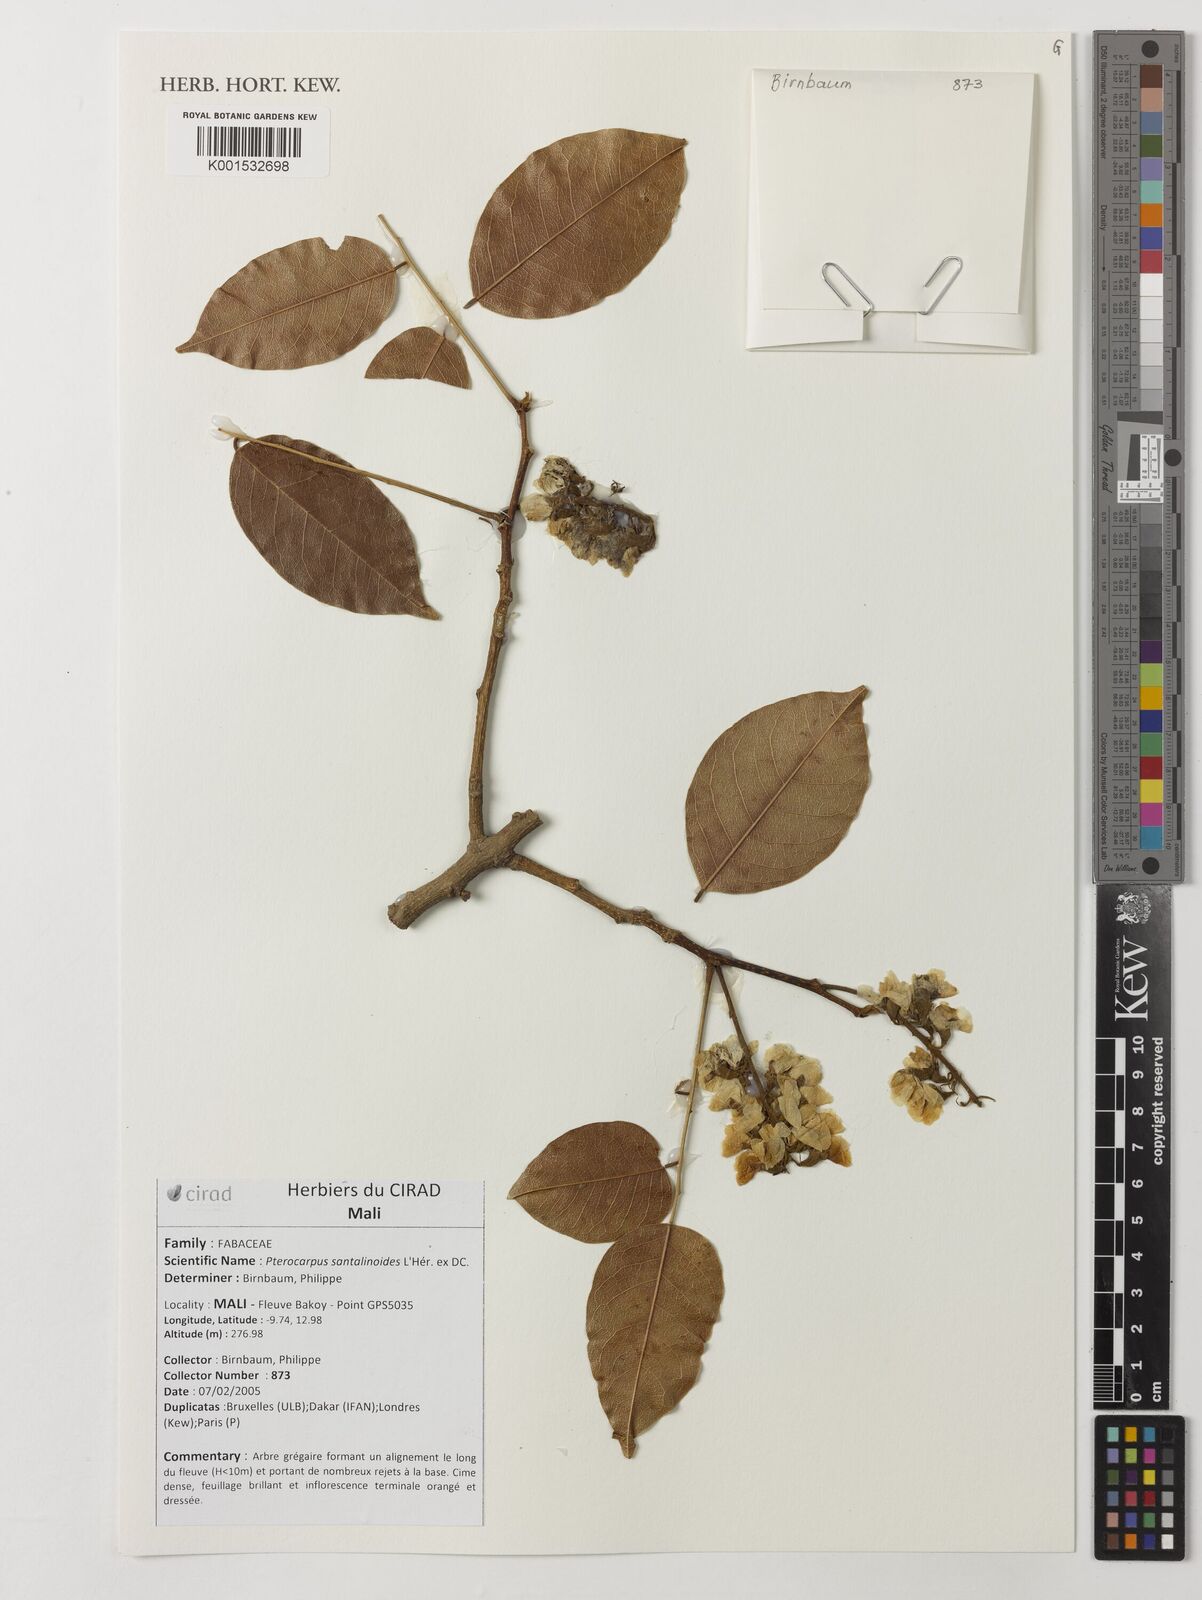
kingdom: Plantae
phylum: Tracheophyta
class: Magnoliopsida
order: Fabales
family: Fabaceae
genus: Pterocarpus
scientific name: Pterocarpus santalinoides
